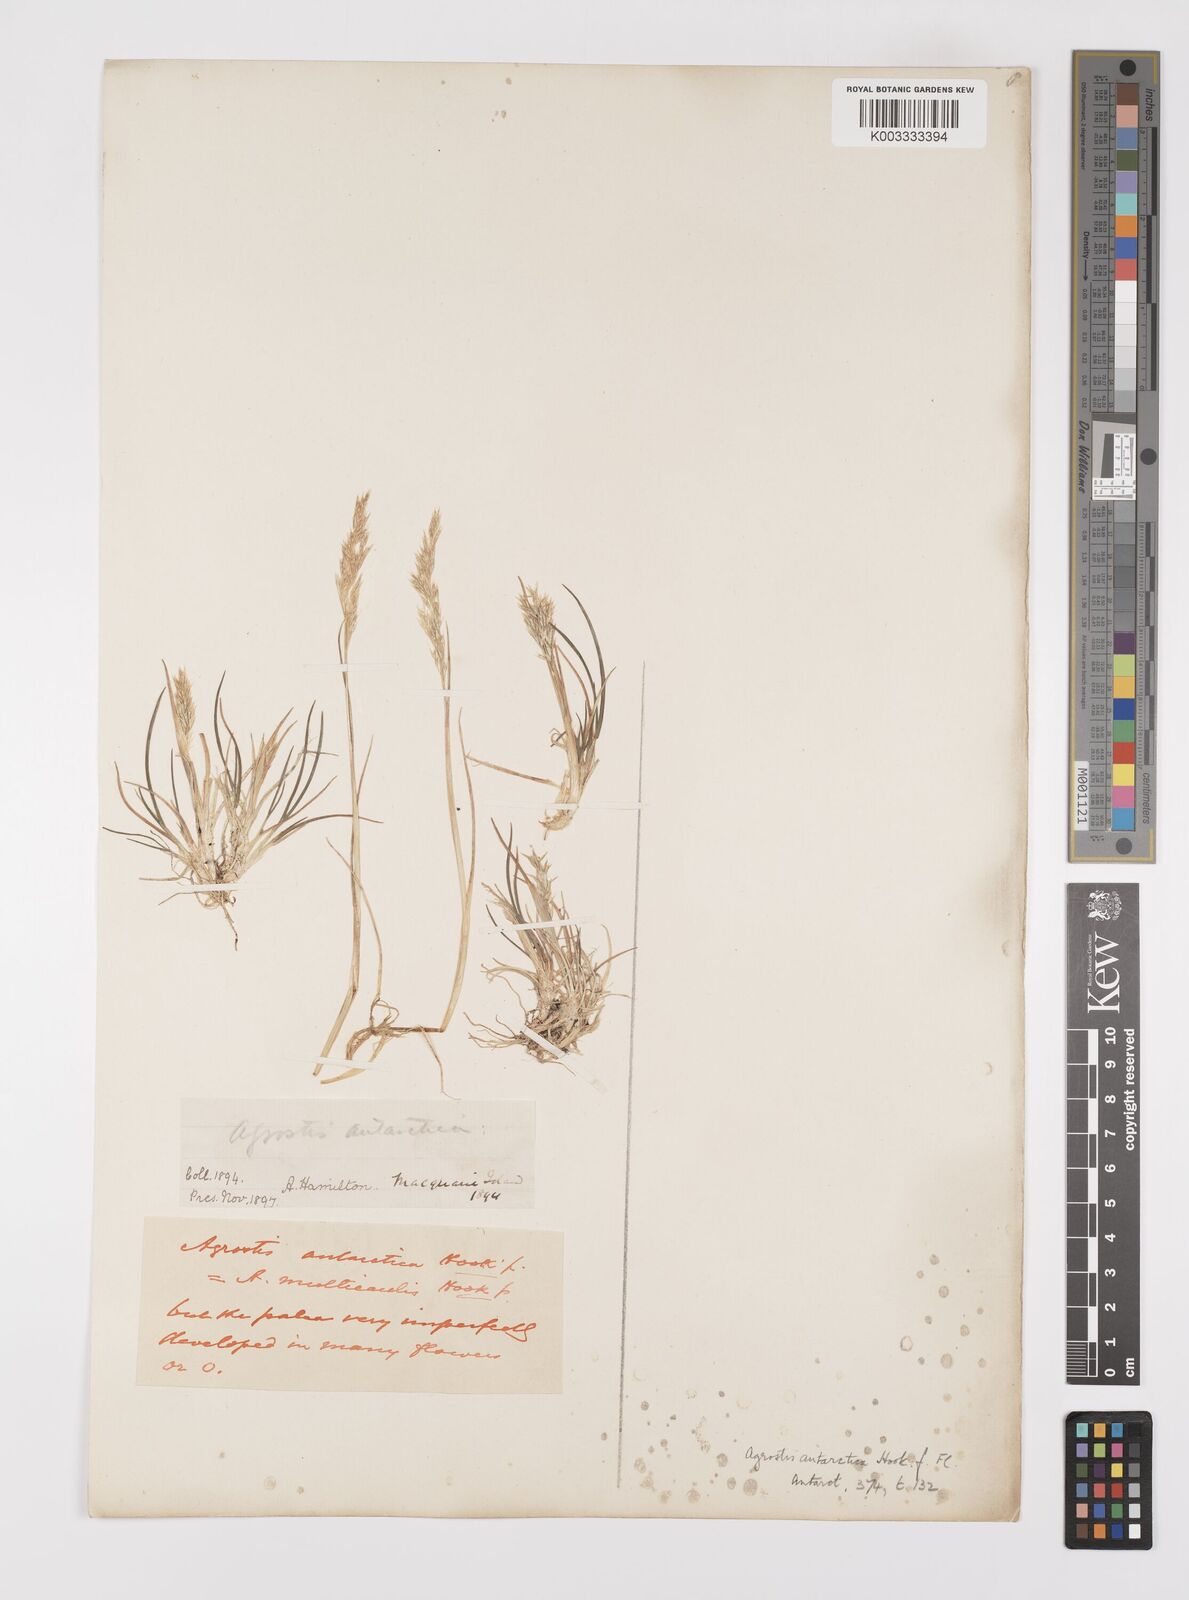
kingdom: Plantae
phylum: Tracheophyta
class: Liliopsida
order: Poales
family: Poaceae
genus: Polypogon
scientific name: Polypogon magellanicus
